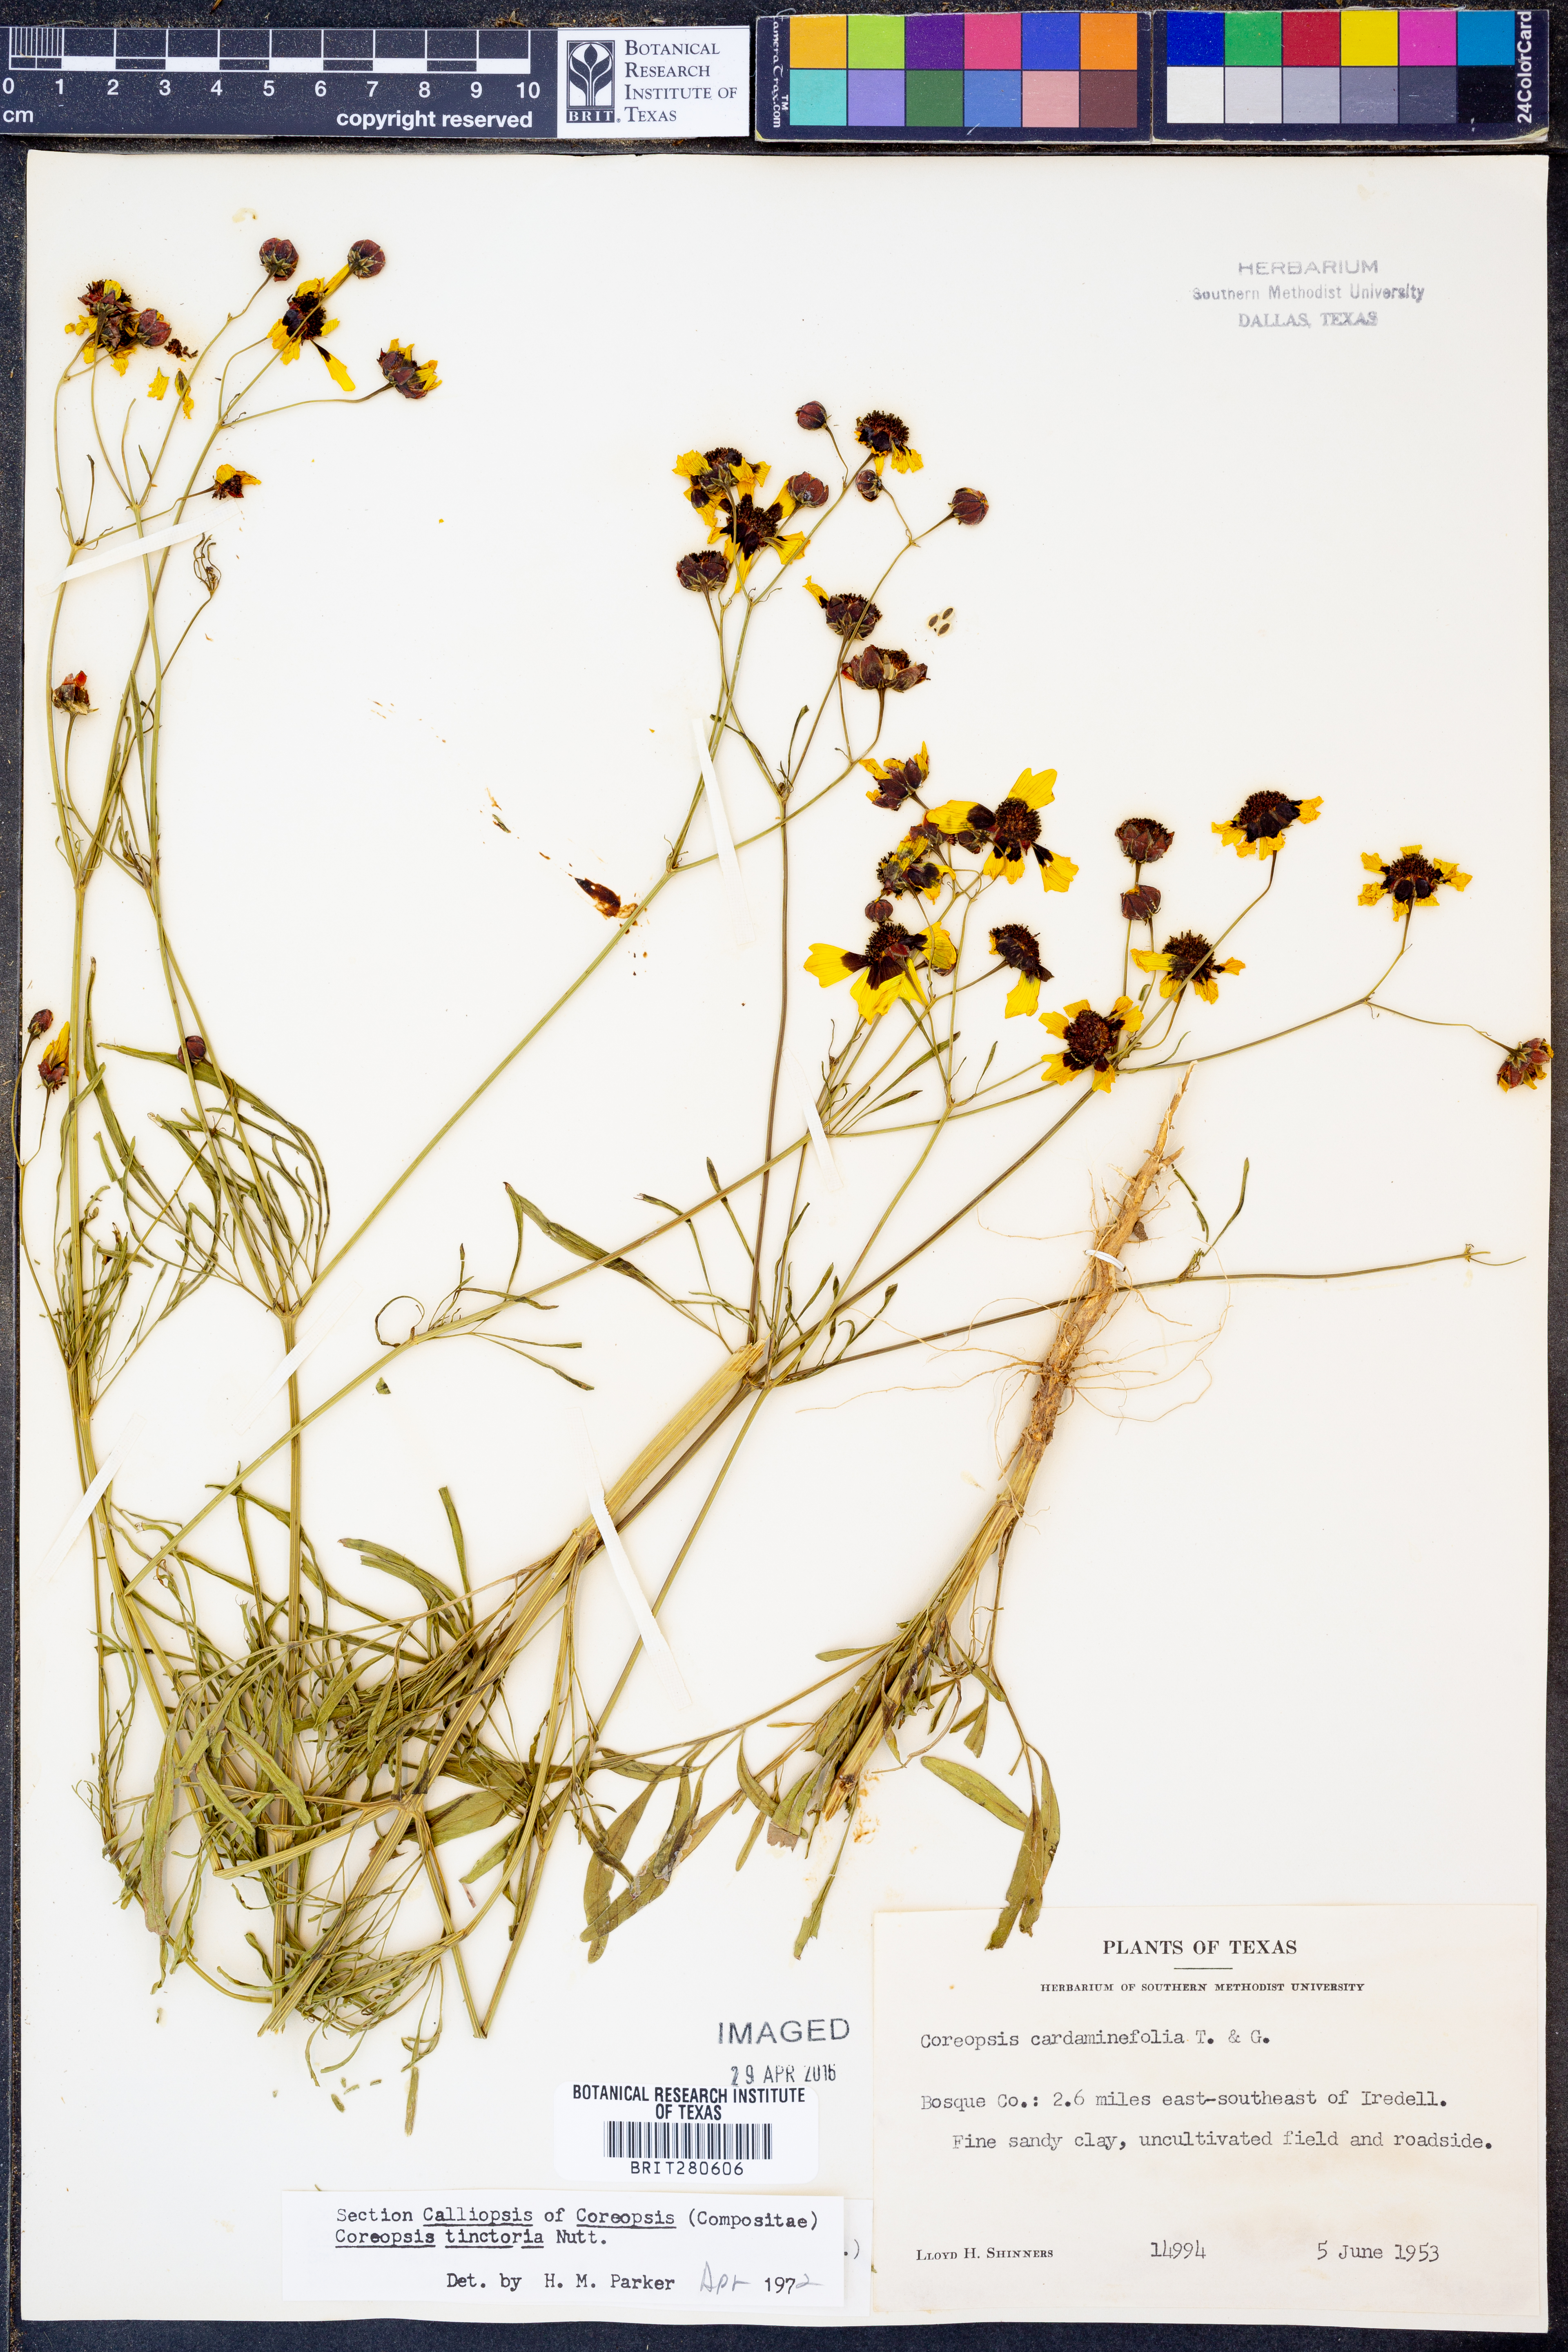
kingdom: Plantae
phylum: Tracheophyta
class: Magnoliopsida
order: Asterales
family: Asteraceae
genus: Coreopsis
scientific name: Coreopsis tinctoria
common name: Garden tickseed
